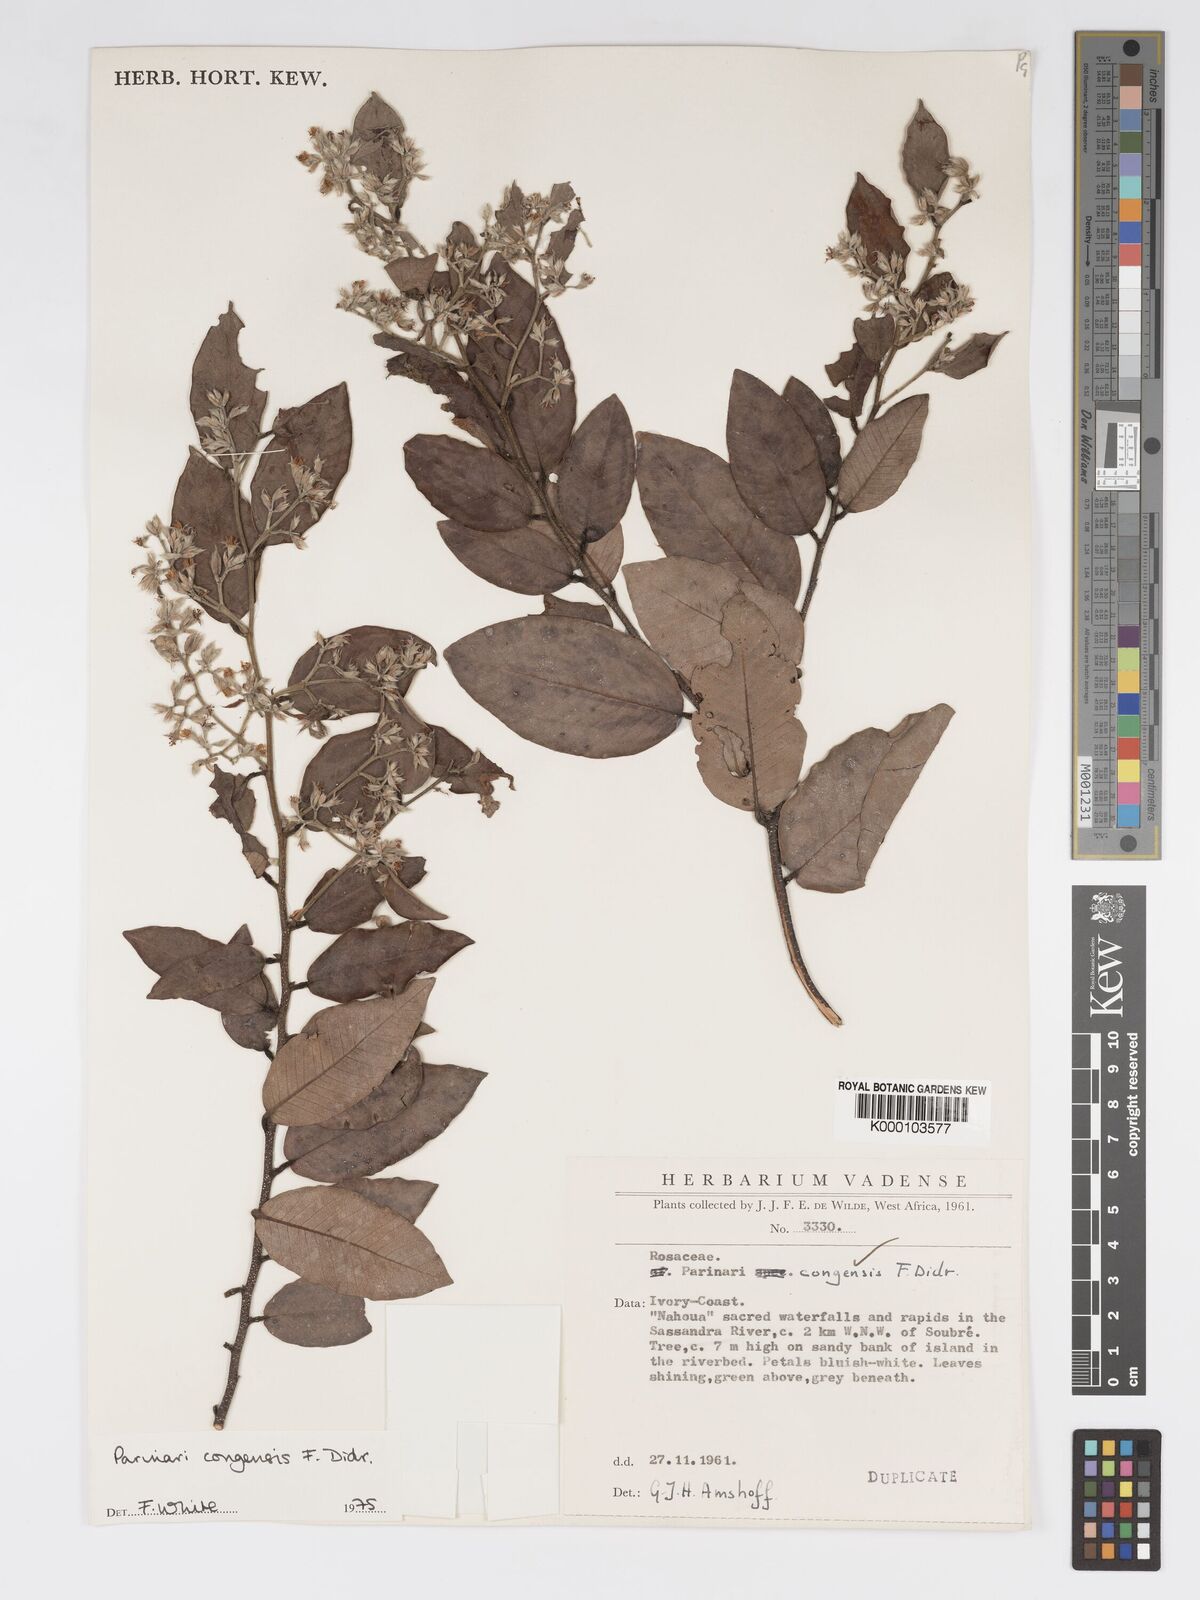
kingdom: Plantae
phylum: Tracheophyta
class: Magnoliopsida
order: Malpighiales
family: Chrysobalanaceae
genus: Parinari
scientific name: Parinari congensis
